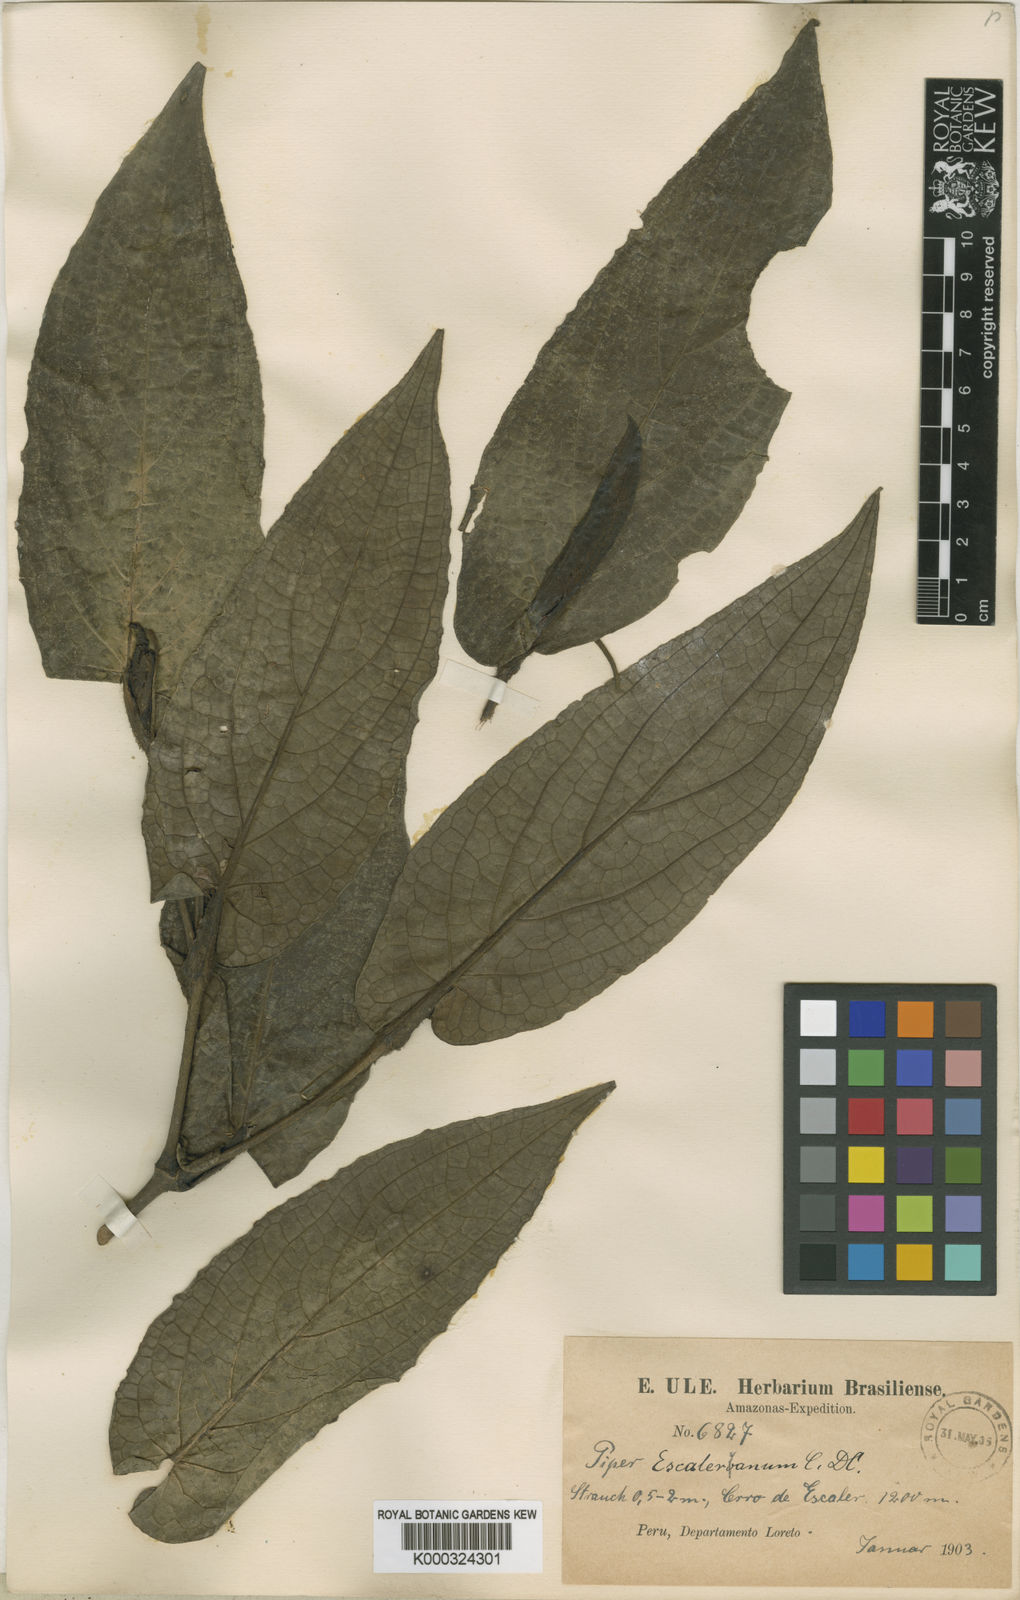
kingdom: Plantae
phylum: Tracheophyta
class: Magnoliopsida
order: Piperales
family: Piperaceae
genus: Piper
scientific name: Piper escaleranum
